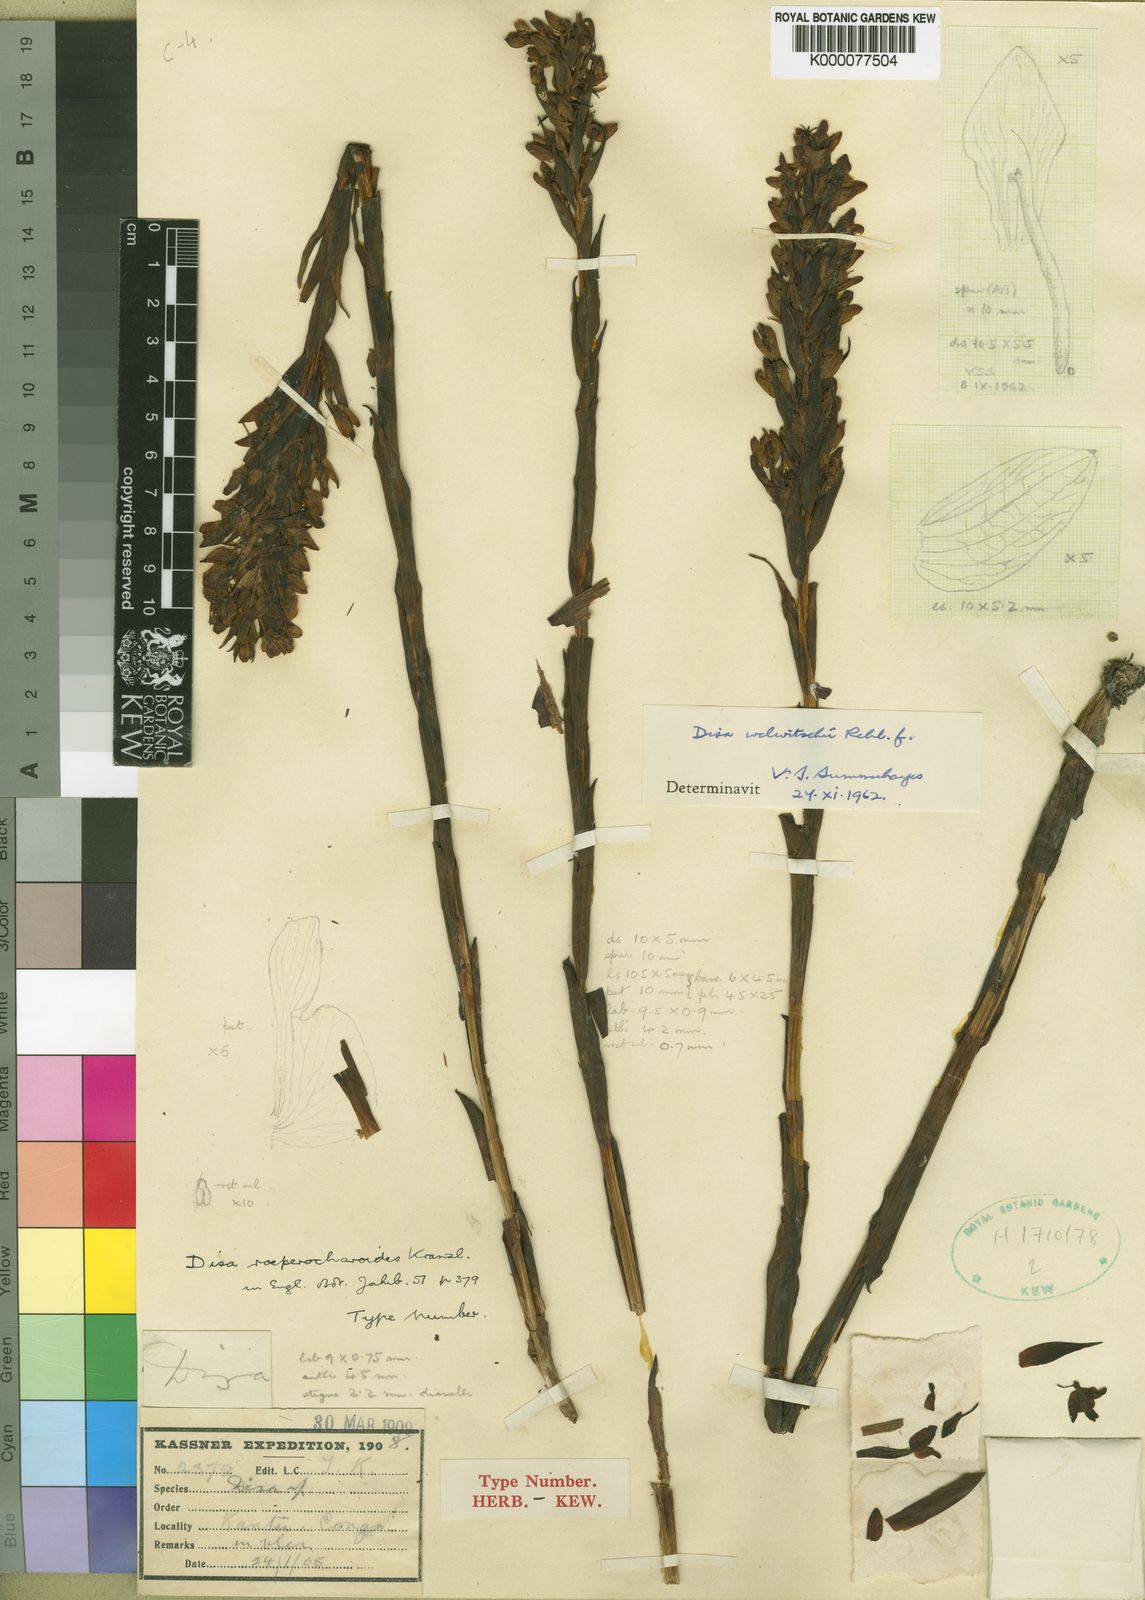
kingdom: Plantae
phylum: Tracheophyta
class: Liliopsida
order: Asparagales
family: Orchidaceae
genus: Disa
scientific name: Disa roeperocharoides
